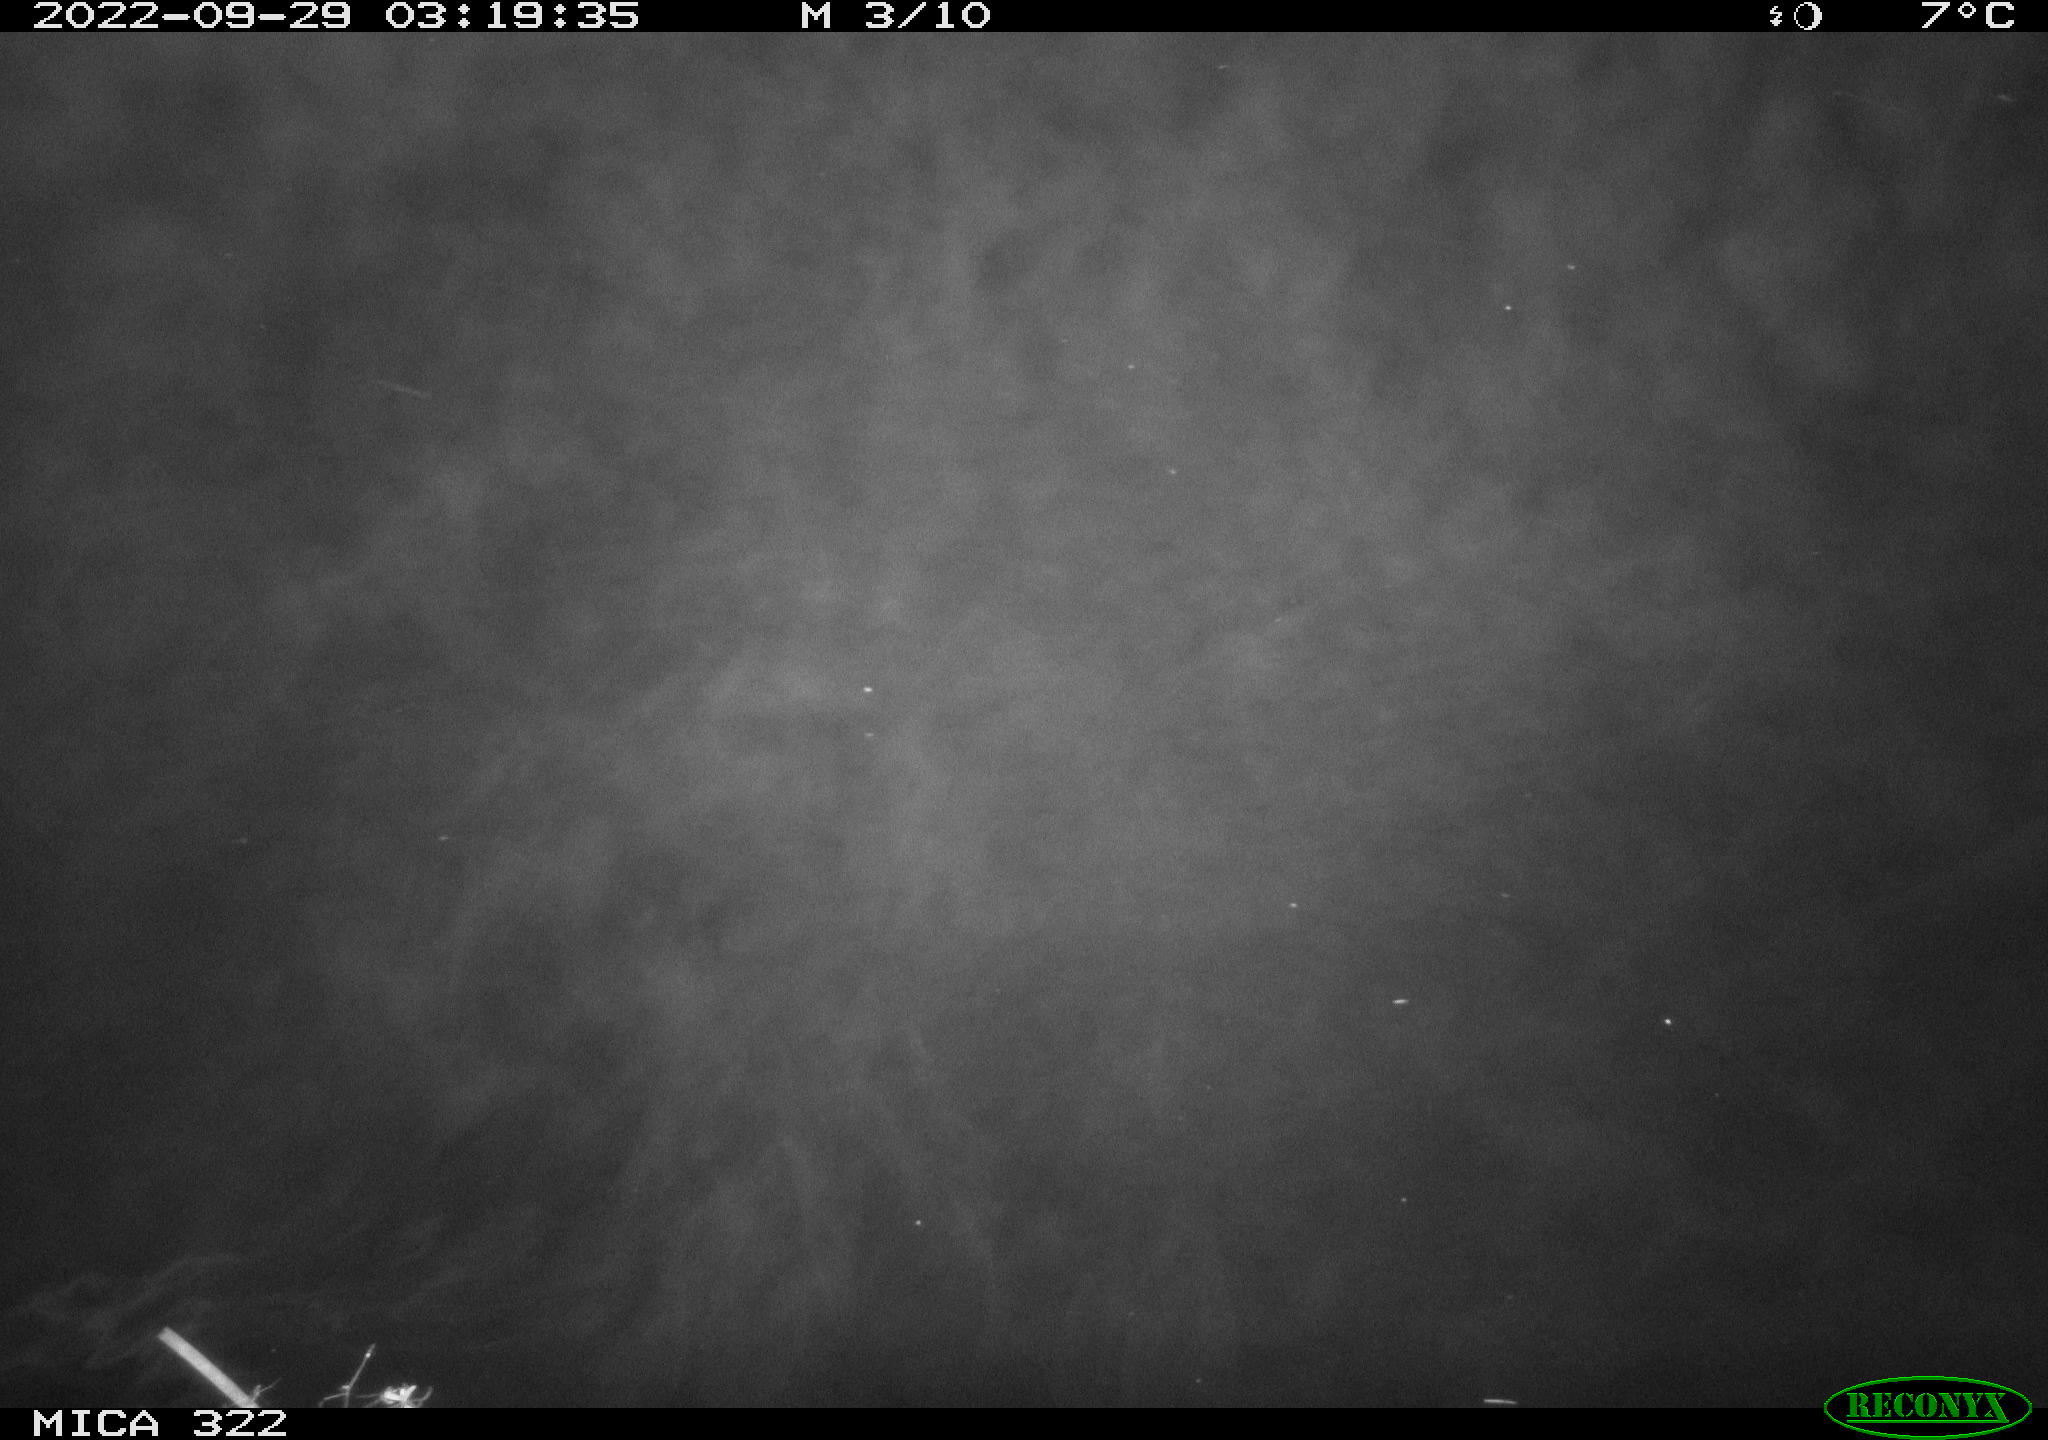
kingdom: Animalia
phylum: Chordata
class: Mammalia
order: Rodentia
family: Muridae
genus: Rattus
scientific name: Rattus norvegicus
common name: Brown rat
